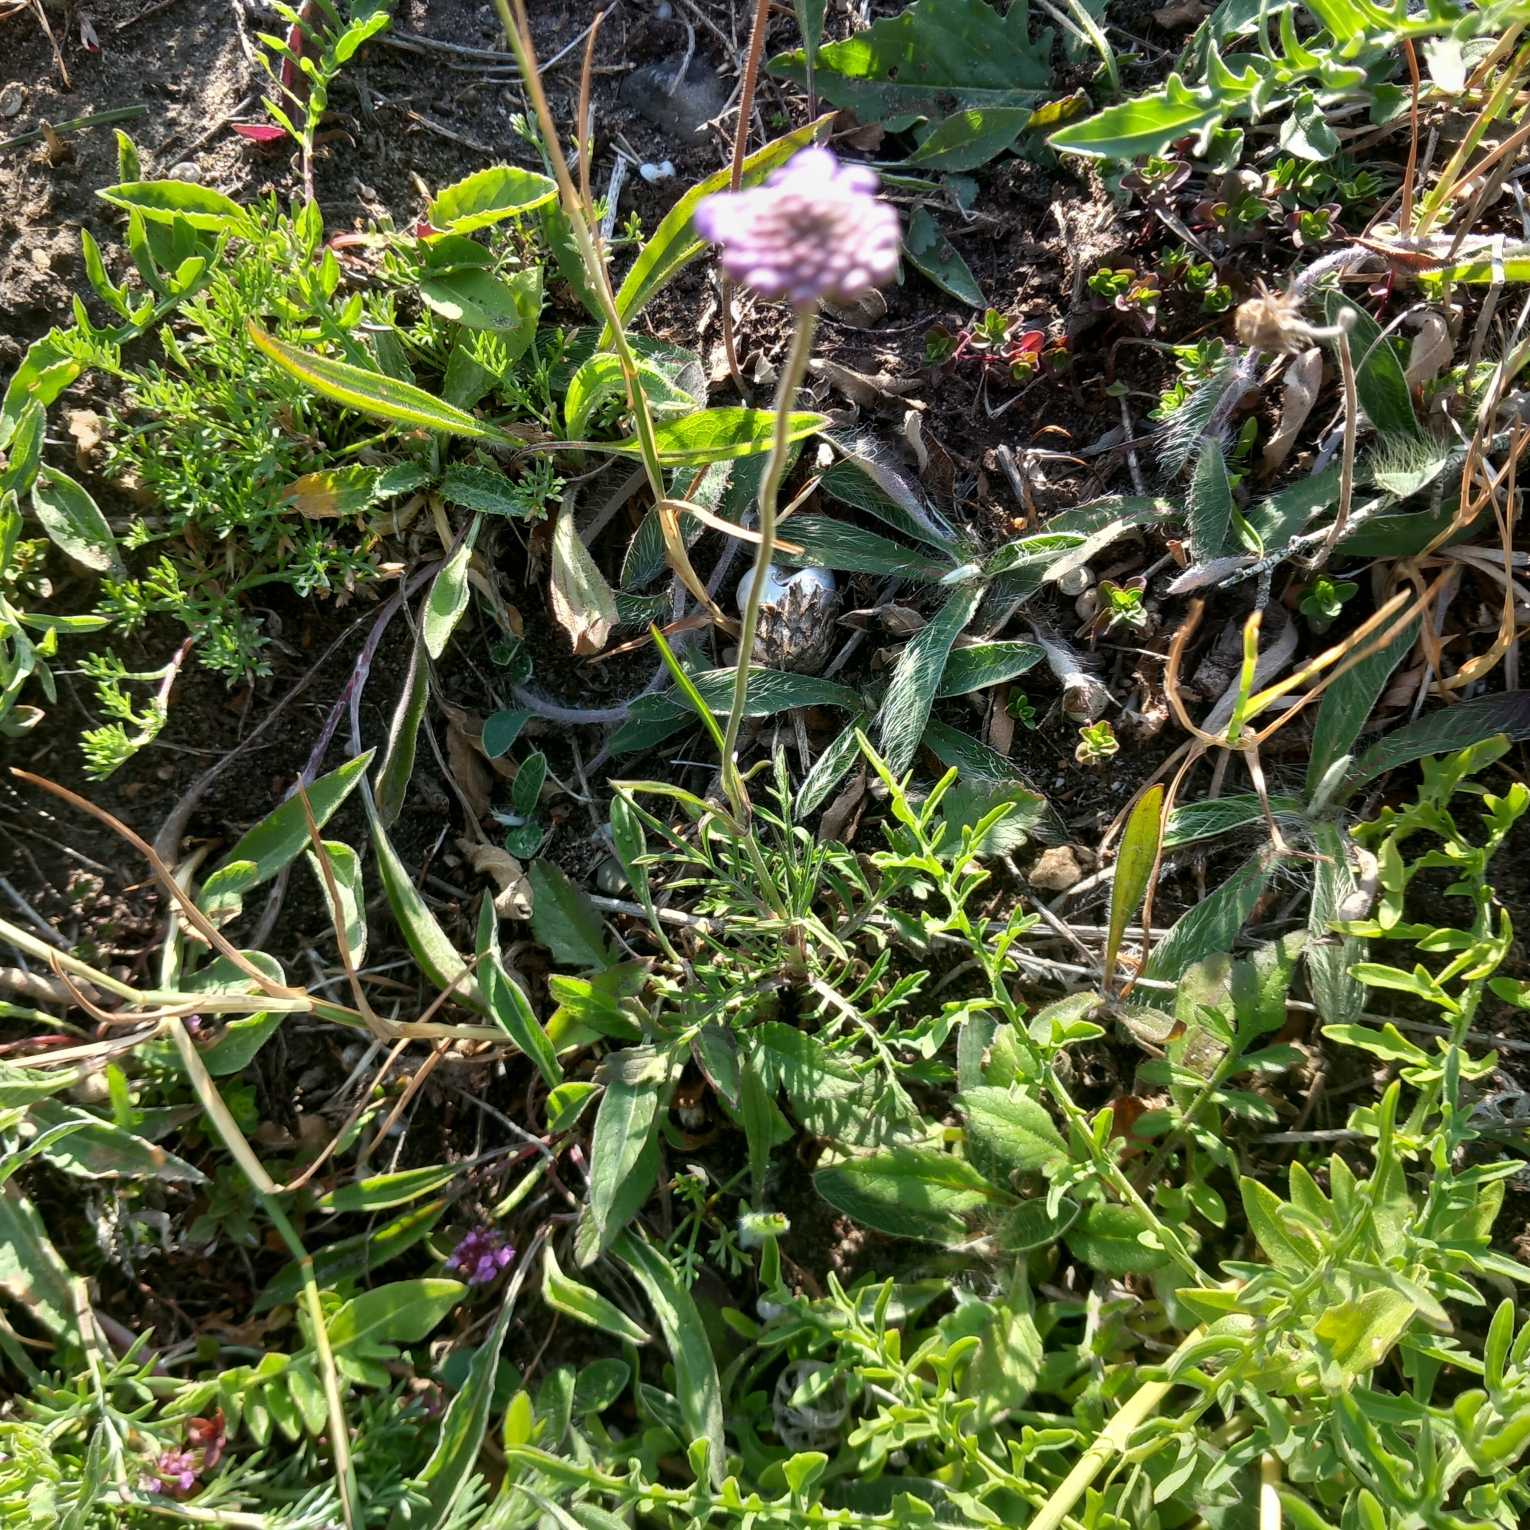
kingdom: Plantae
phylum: Tracheophyta
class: Magnoliopsida
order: Dipsacales
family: Caprifoliaceae
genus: Scabiosa
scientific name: Scabiosa columbaria
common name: Due-skabiose
